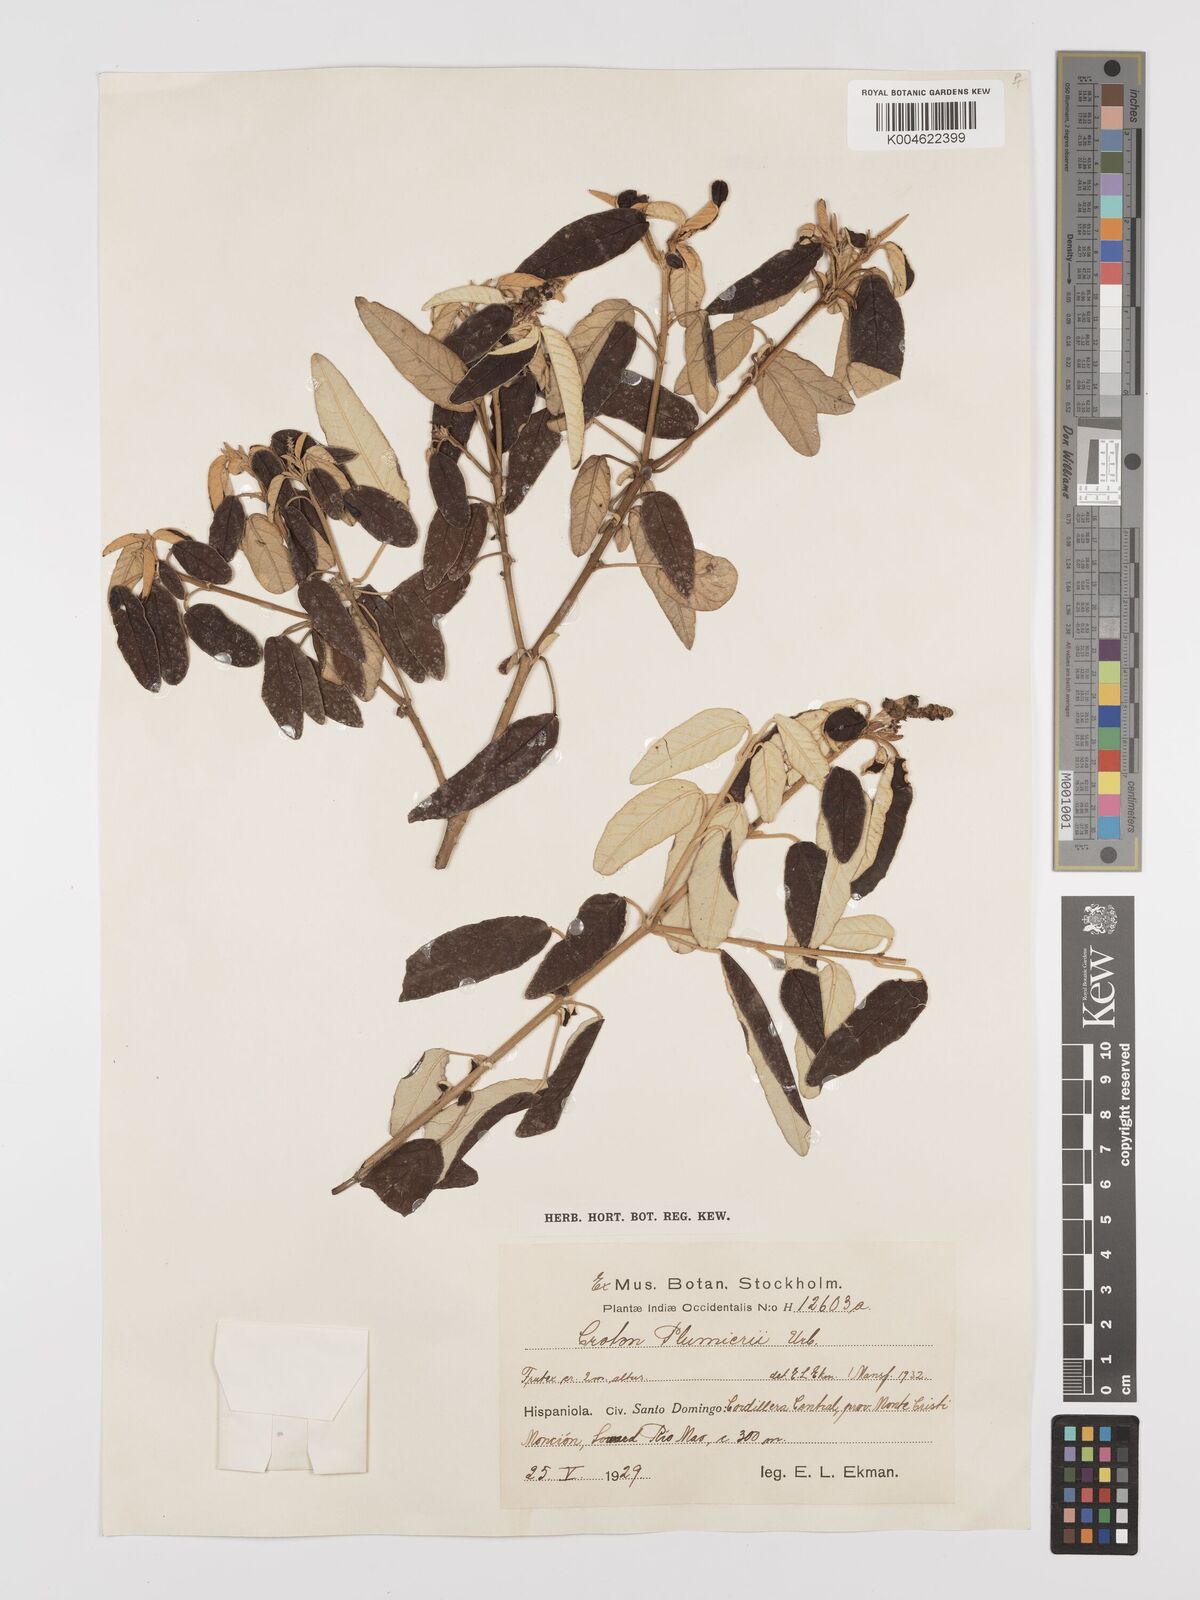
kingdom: Plantae
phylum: Tracheophyta
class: Magnoliopsida
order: Malpighiales
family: Euphorbiaceae
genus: Croton
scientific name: Croton vaillantii
